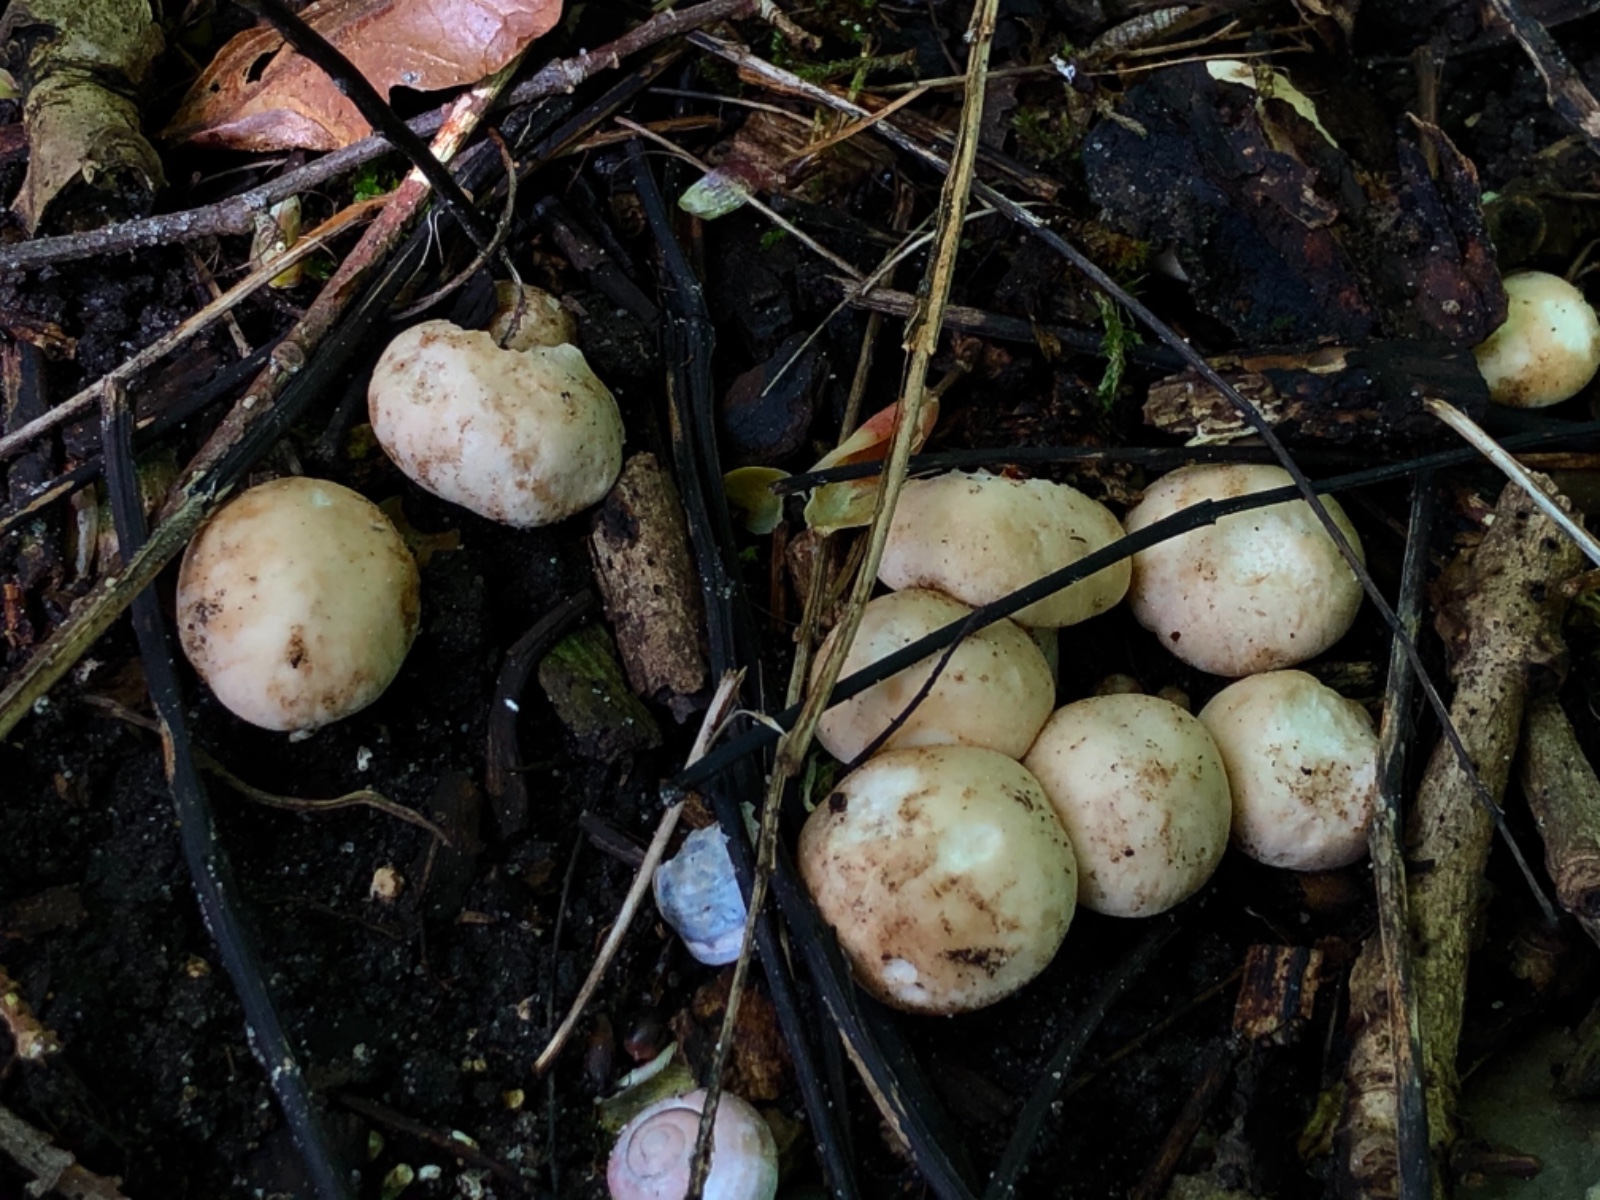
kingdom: Fungi
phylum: Basidiomycota
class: Agaricomycetes
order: Agaricales
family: Lyophyllaceae
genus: Calocybe
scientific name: Calocybe gambosa
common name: vårmusseron
